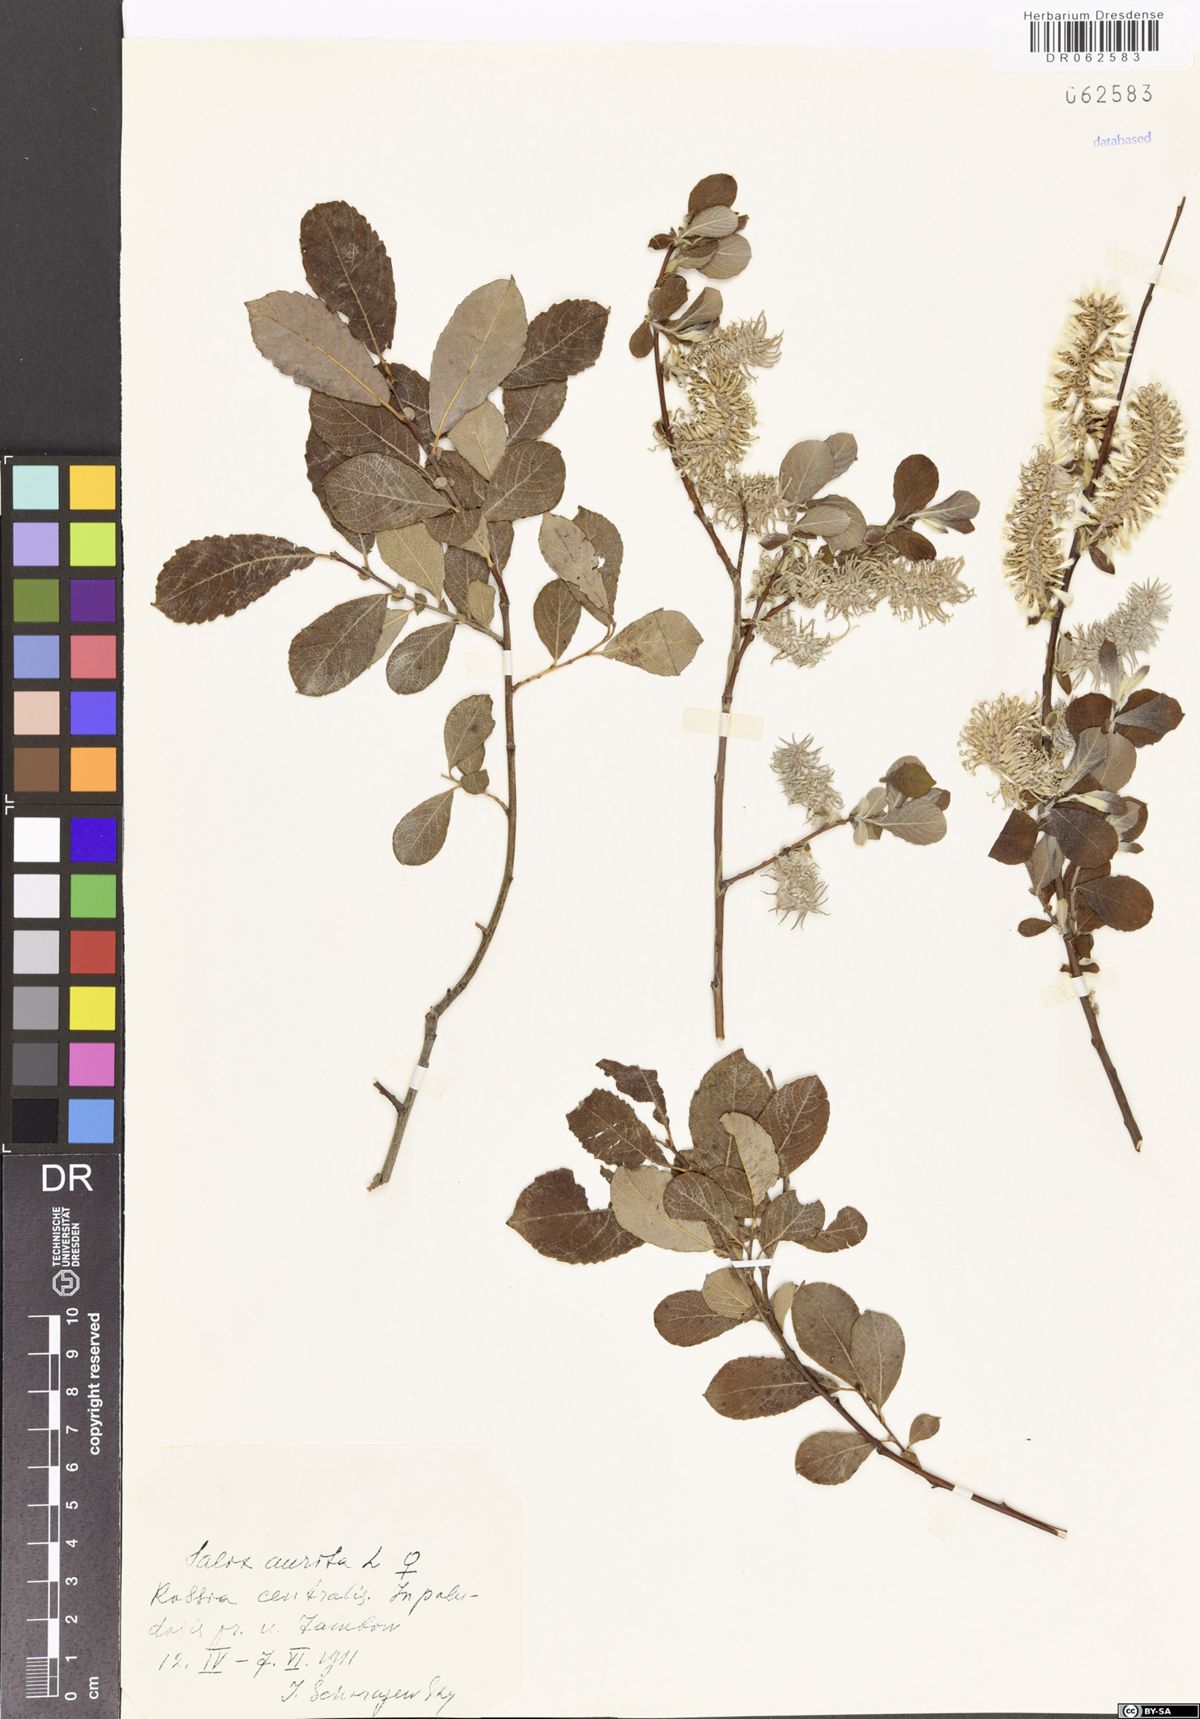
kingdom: Plantae
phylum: Tracheophyta
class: Magnoliopsida
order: Malpighiales
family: Salicaceae
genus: Salix
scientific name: Salix aurita
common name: Eared willow
